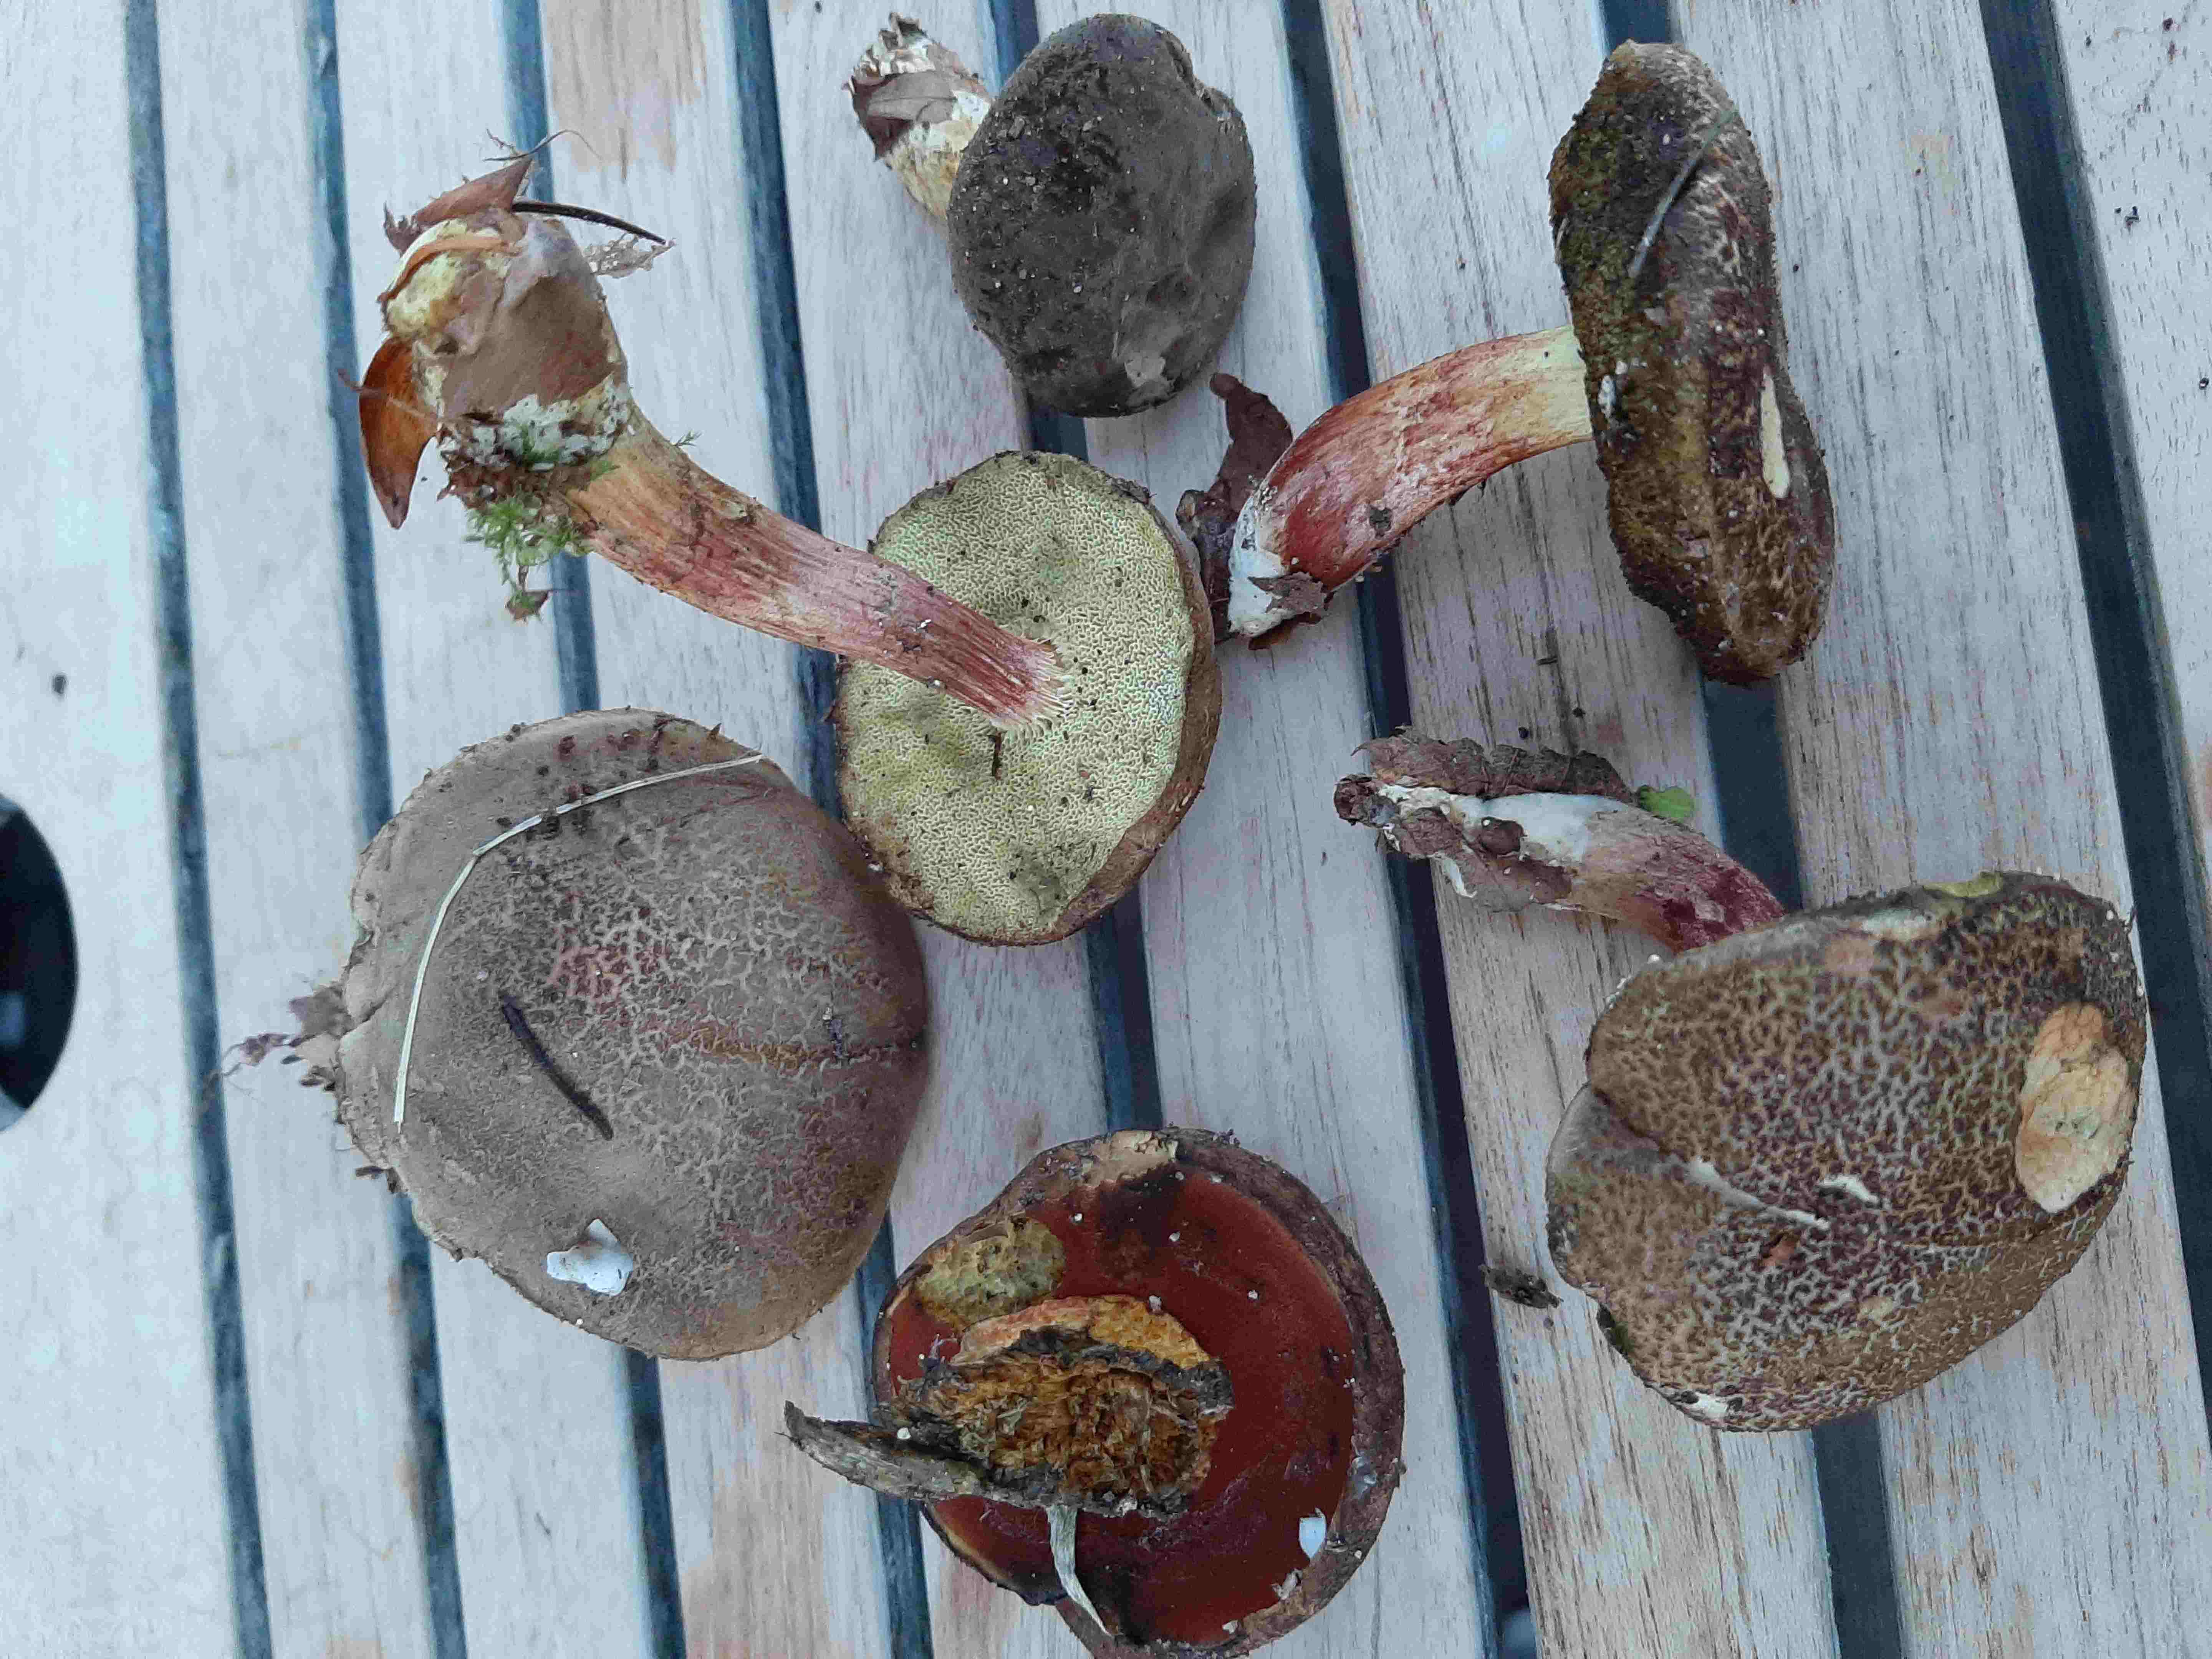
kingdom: Fungi
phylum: Basidiomycota
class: Agaricomycetes
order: Boletales
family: Boletaceae
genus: Xerocomellus
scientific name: Xerocomellus
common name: dværgrørhat
